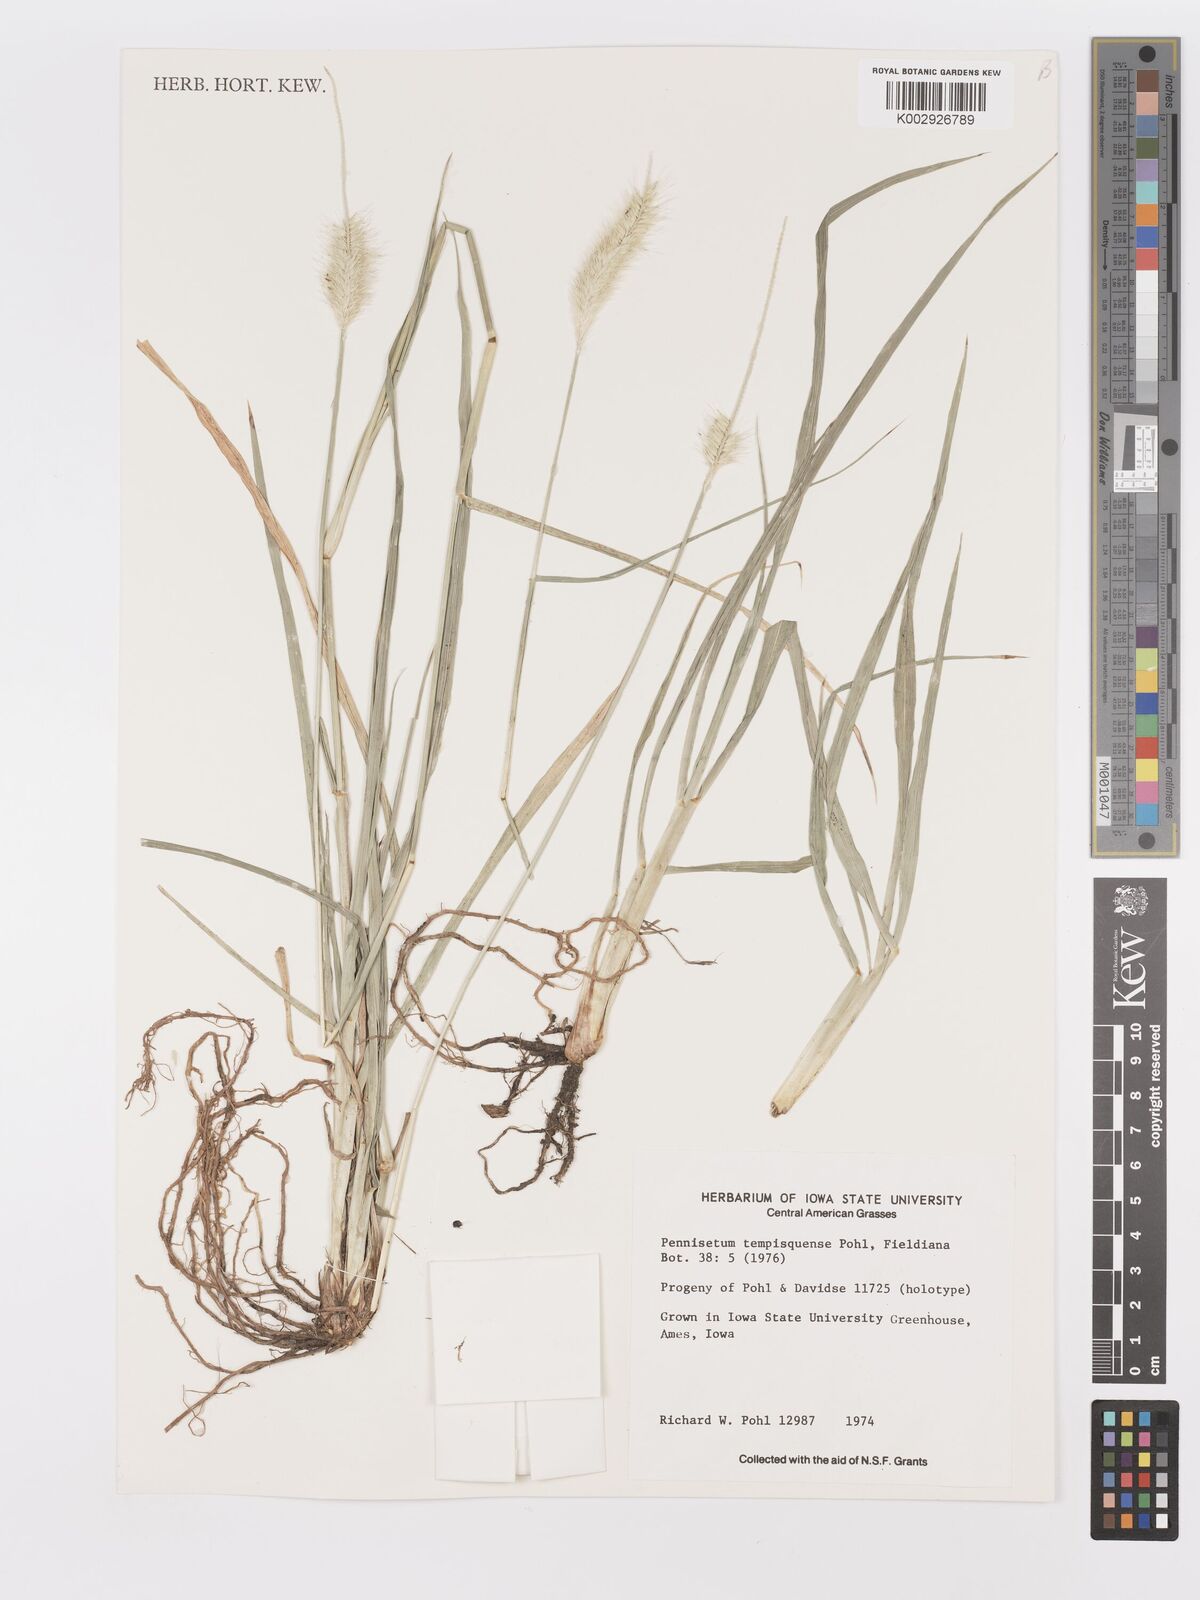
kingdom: Plantae
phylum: Tracheophyta
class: Liliopsida
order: Poales
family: Poaceae
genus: Cenchrus
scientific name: Cenchrus tempisquensis
